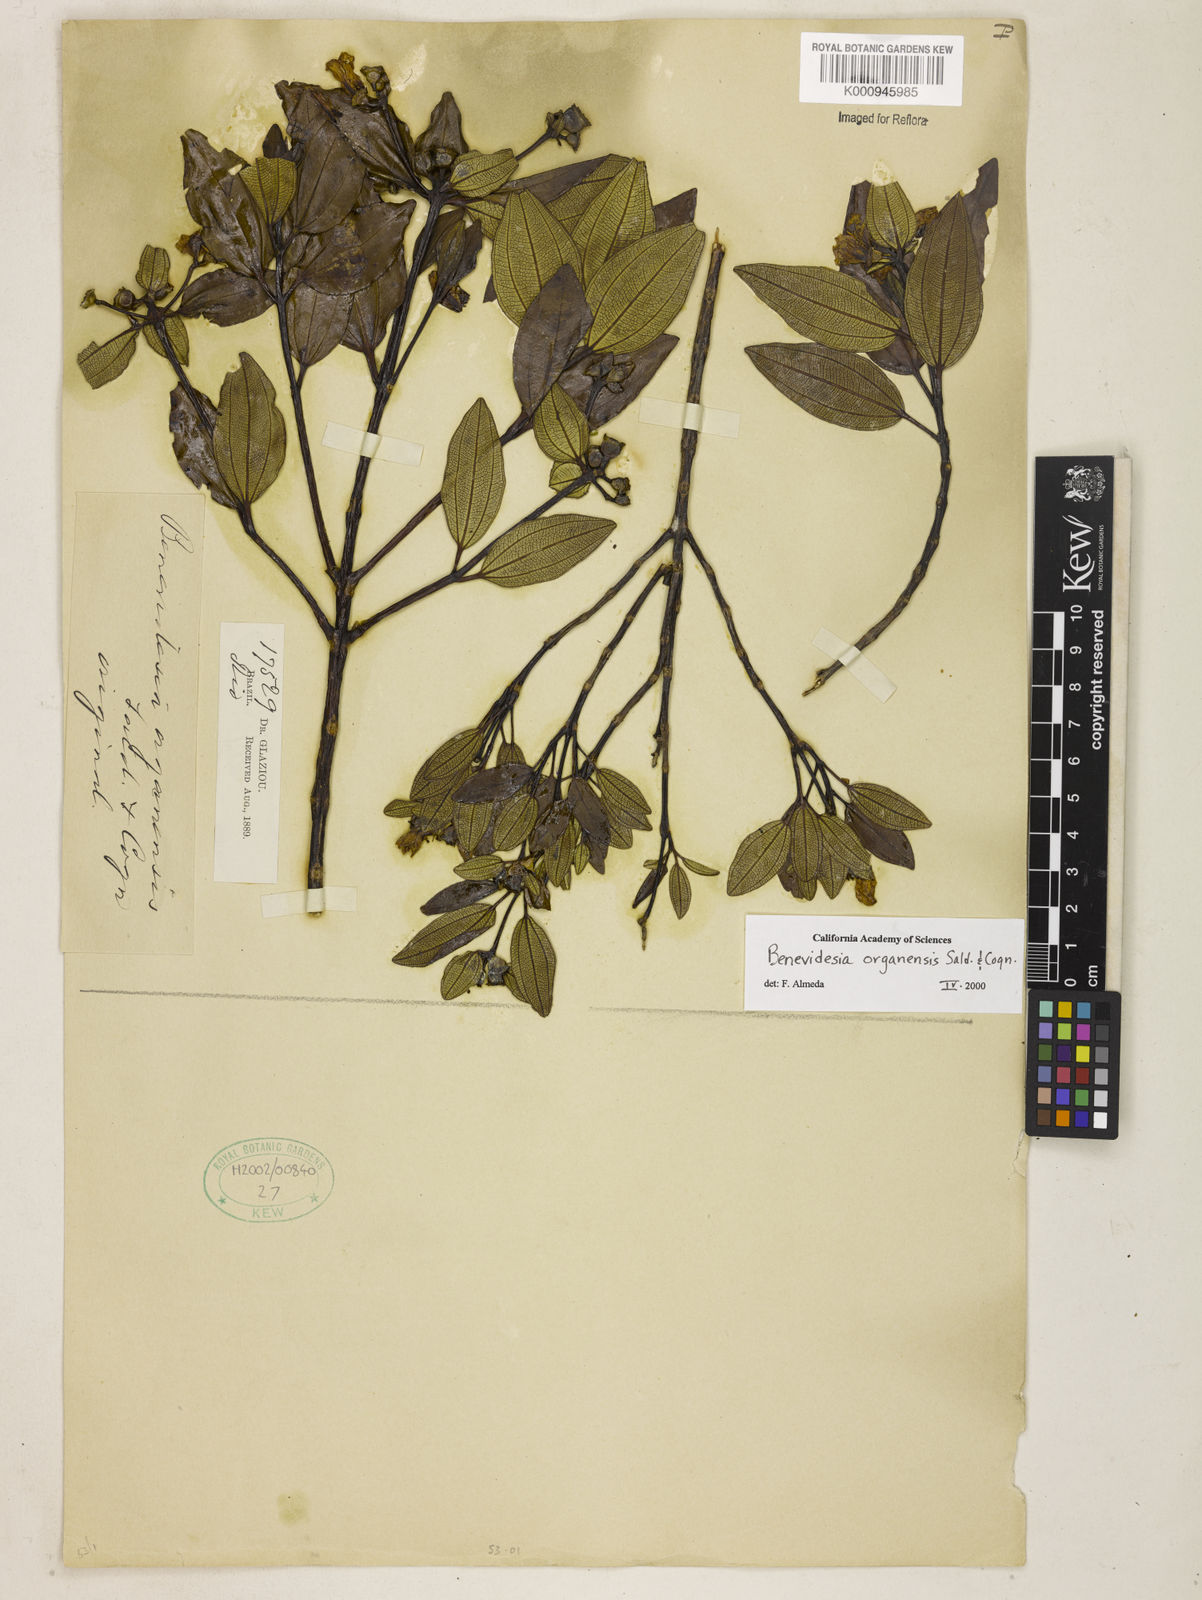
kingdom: Plantae
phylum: Tracheophyta
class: Magnoliopsida
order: Myrtales
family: Melastomataceae
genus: Huberia
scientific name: Huberia organensis
